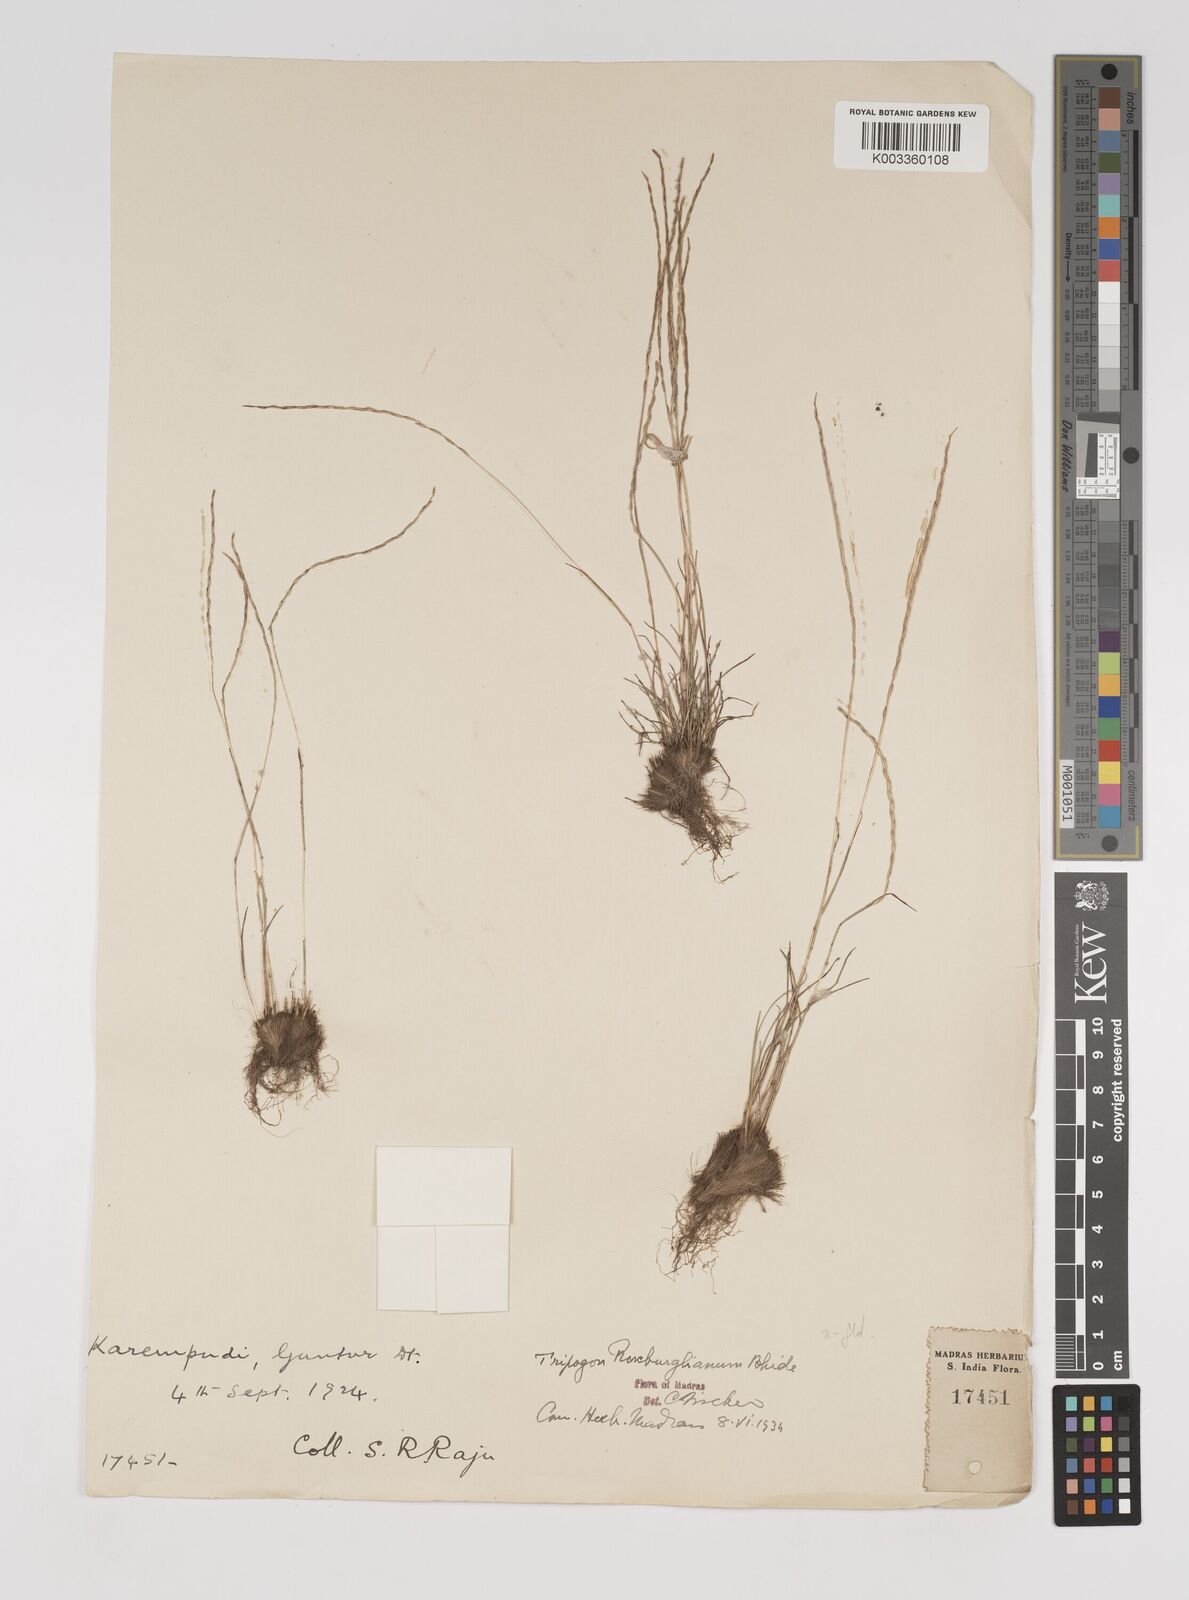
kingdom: Plantae
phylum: Tracheophyta
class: Liliopsida
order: Poales
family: Poaceae
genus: Oropetium
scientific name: Oropetium roxburghianum
